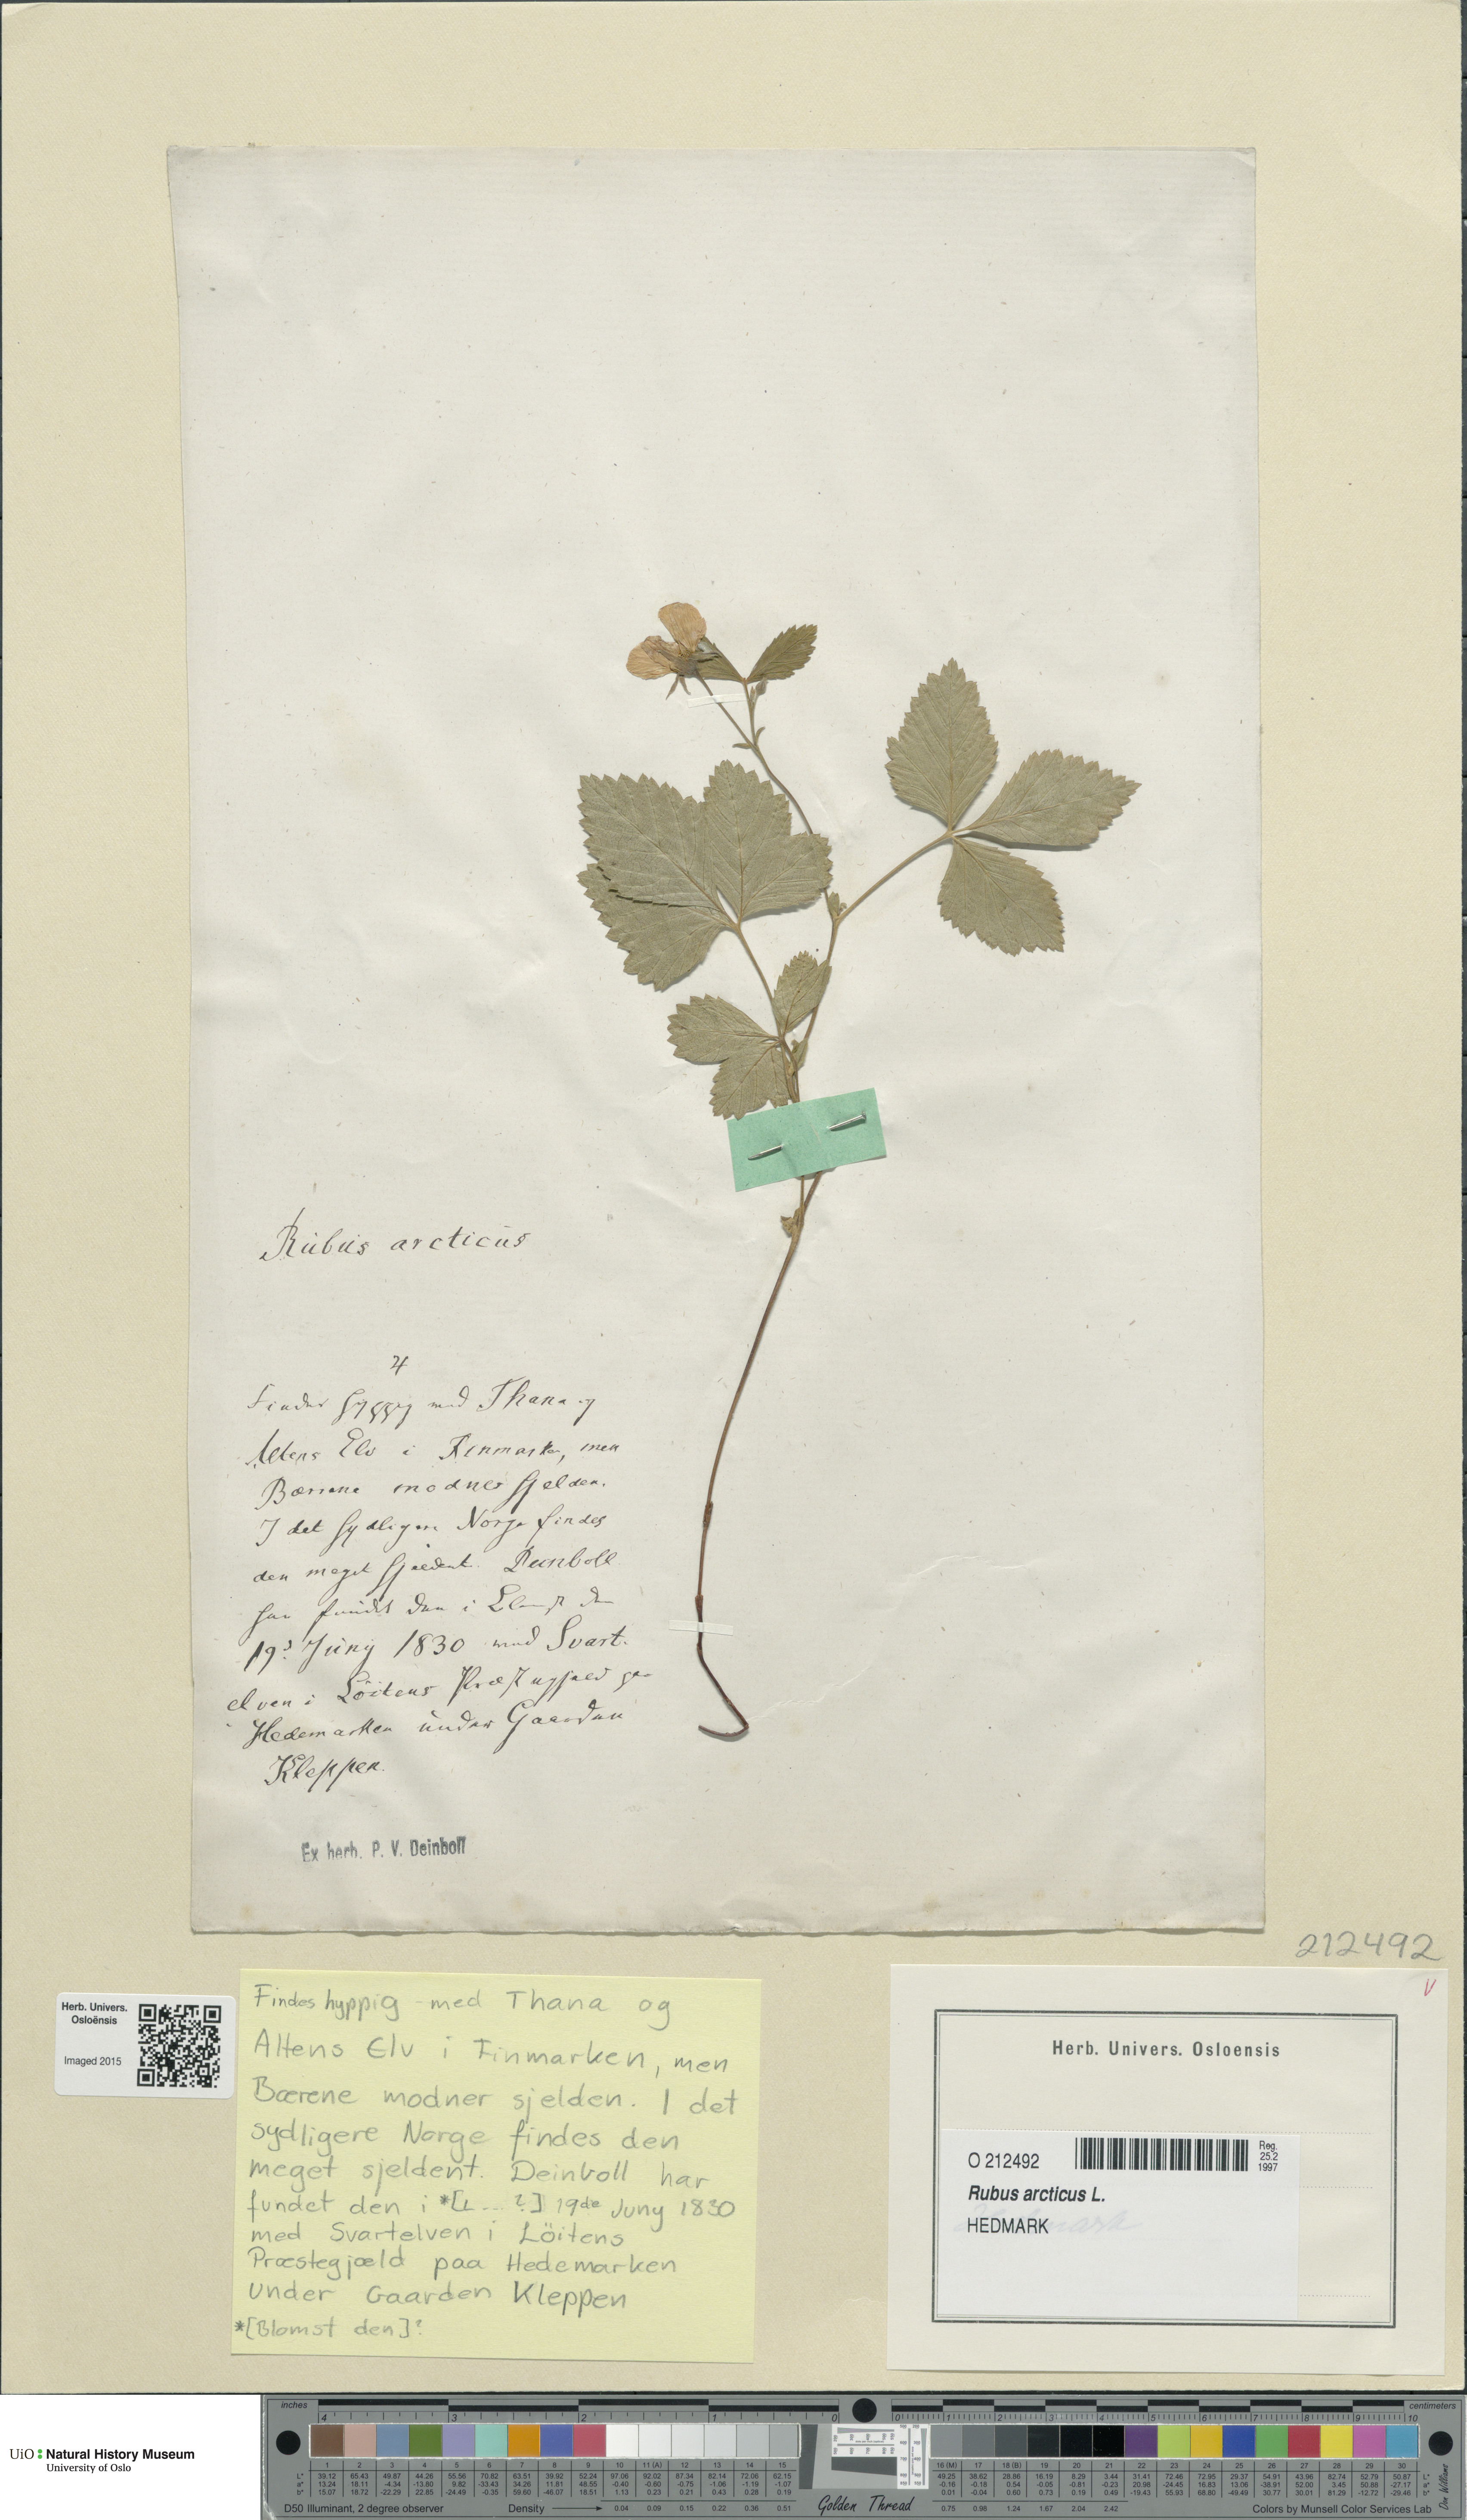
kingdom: Plantae
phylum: Tracheophyta
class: Magnoliopsida
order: Rosales
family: Rosaceae
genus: Rubus
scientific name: Rubus arcticus
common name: Arctic bramble
